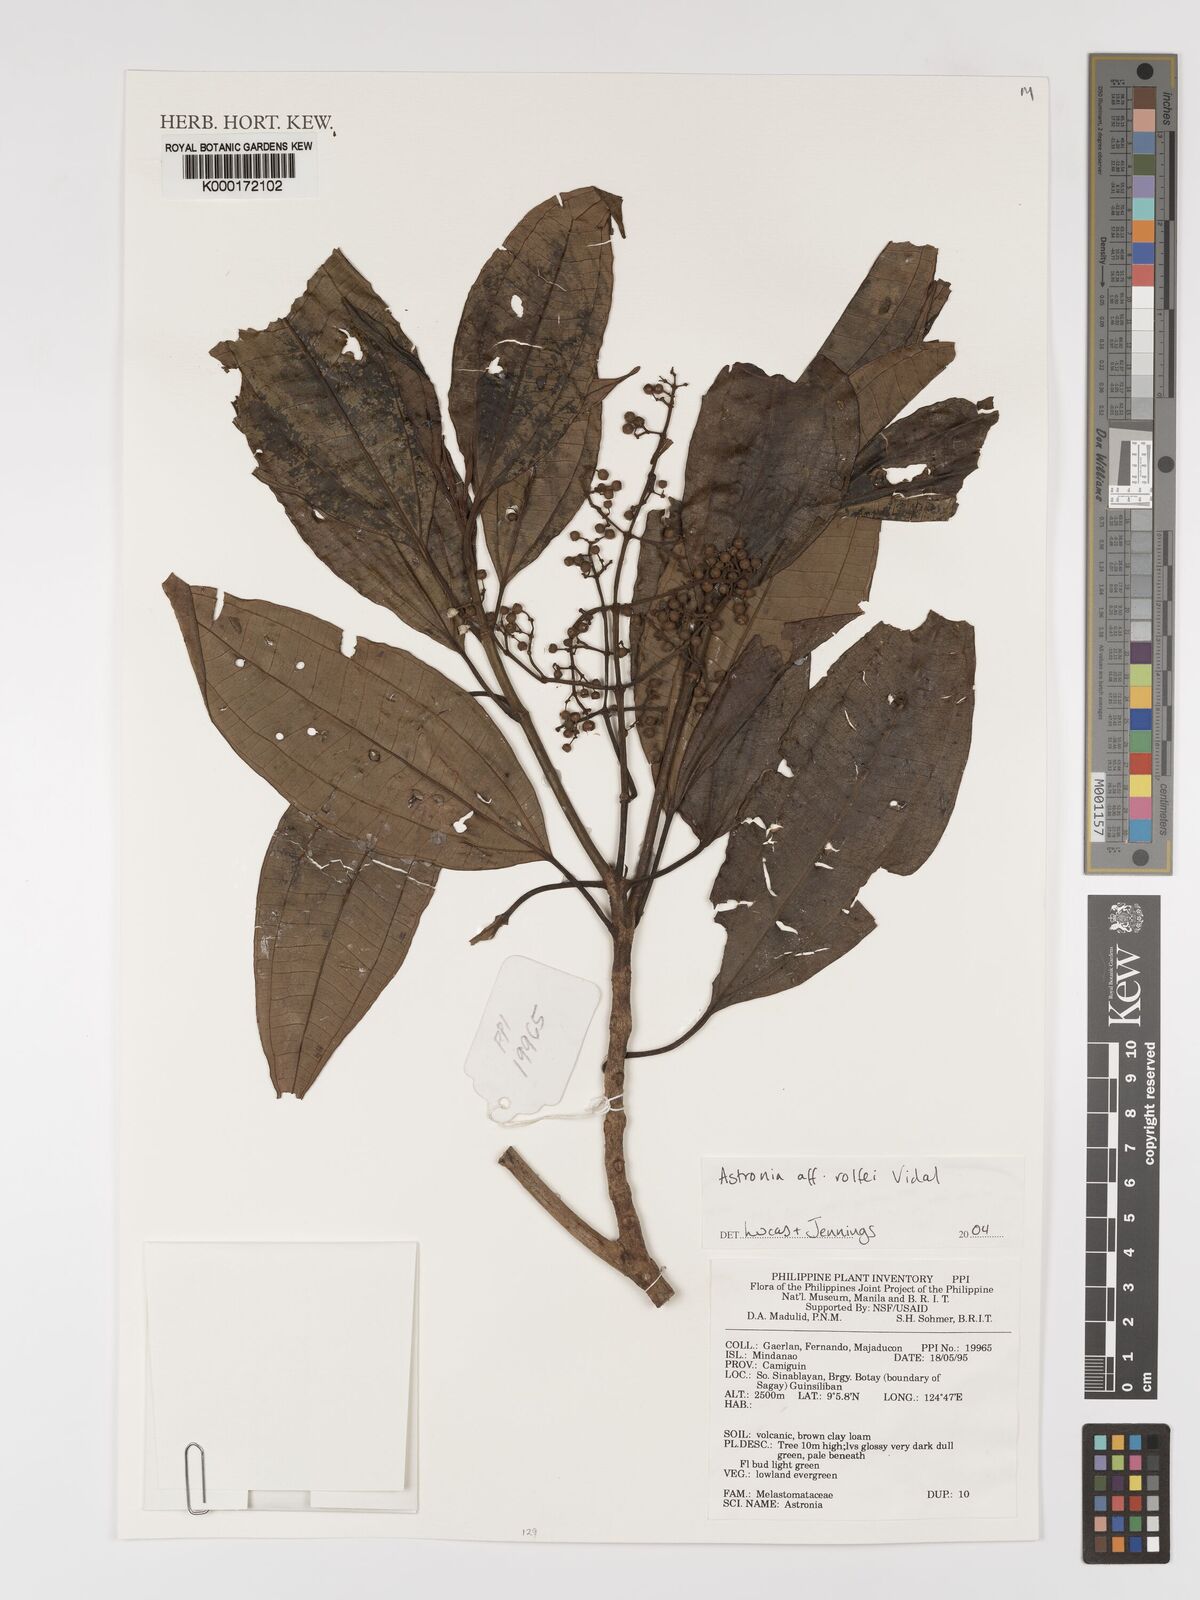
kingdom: Plantae
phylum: Tracheophyta
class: Magnoliopsida
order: Myrtales
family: Melastomataceae
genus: Astronia
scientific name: Astronia
